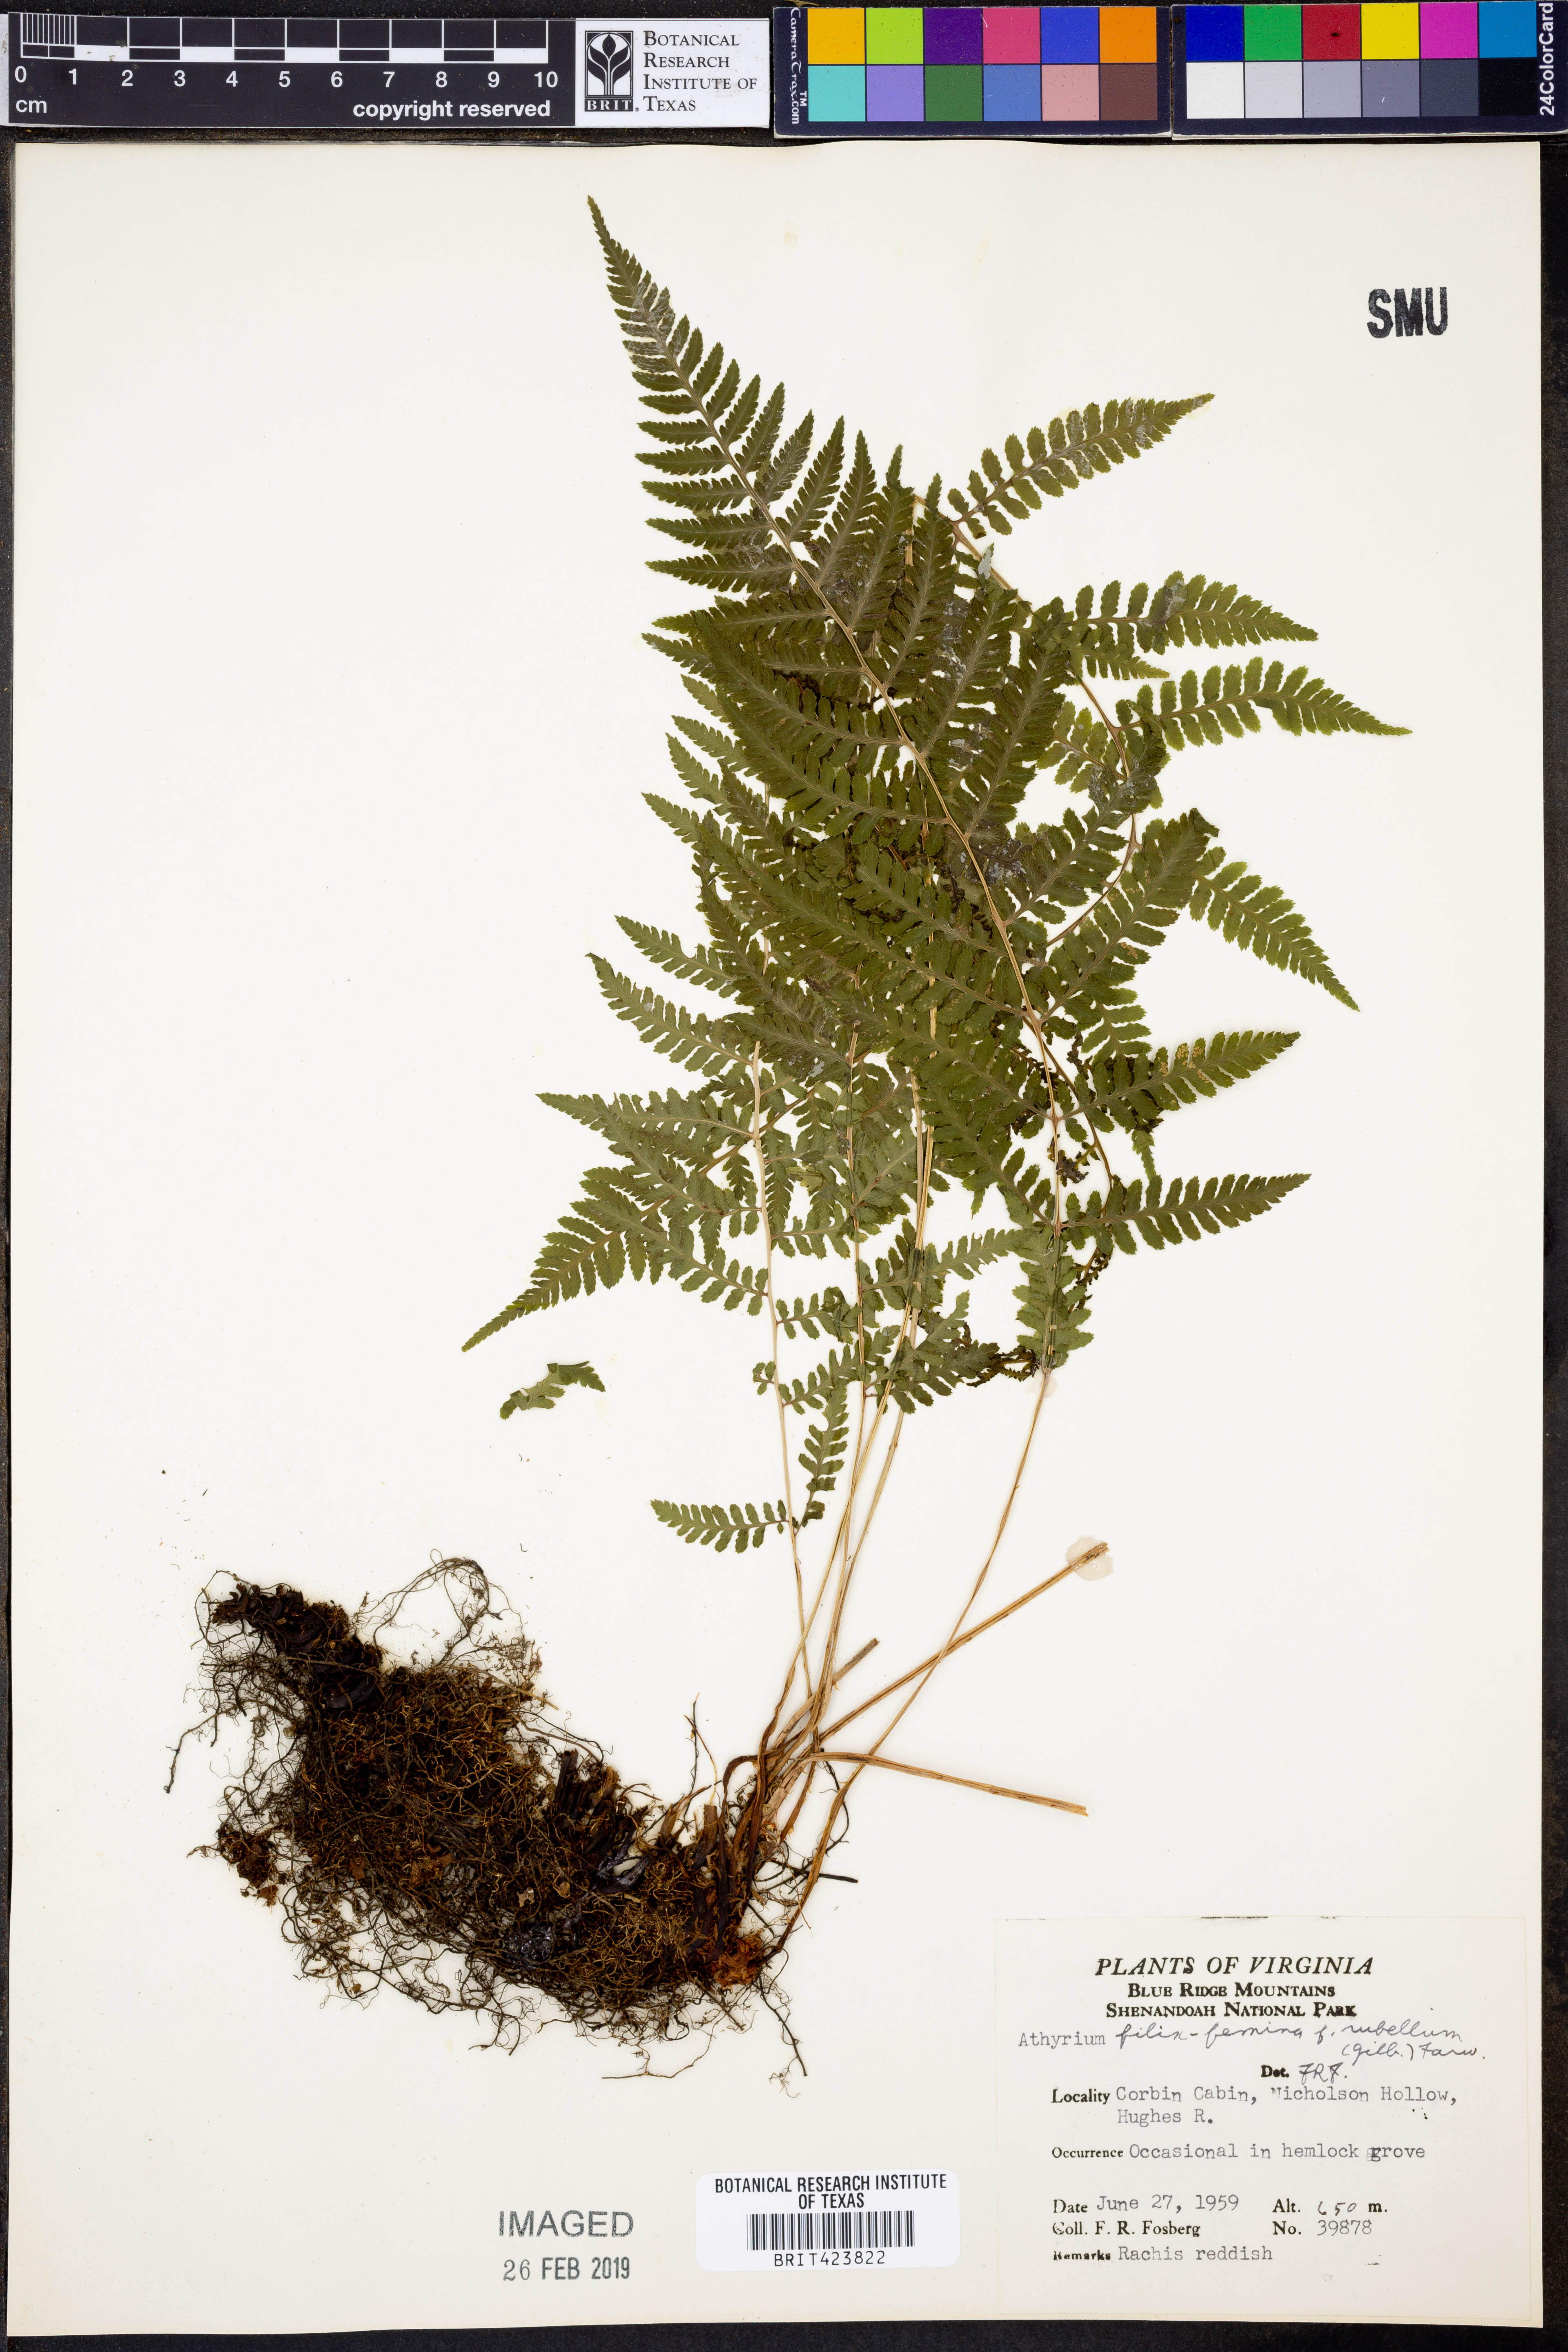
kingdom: Plantae
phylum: Tracheophyta
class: Polypodiopsida
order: Polypodiales
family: Athyriaceae
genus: Athyrium
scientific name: Athyrium filix-femina
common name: Lady fern
